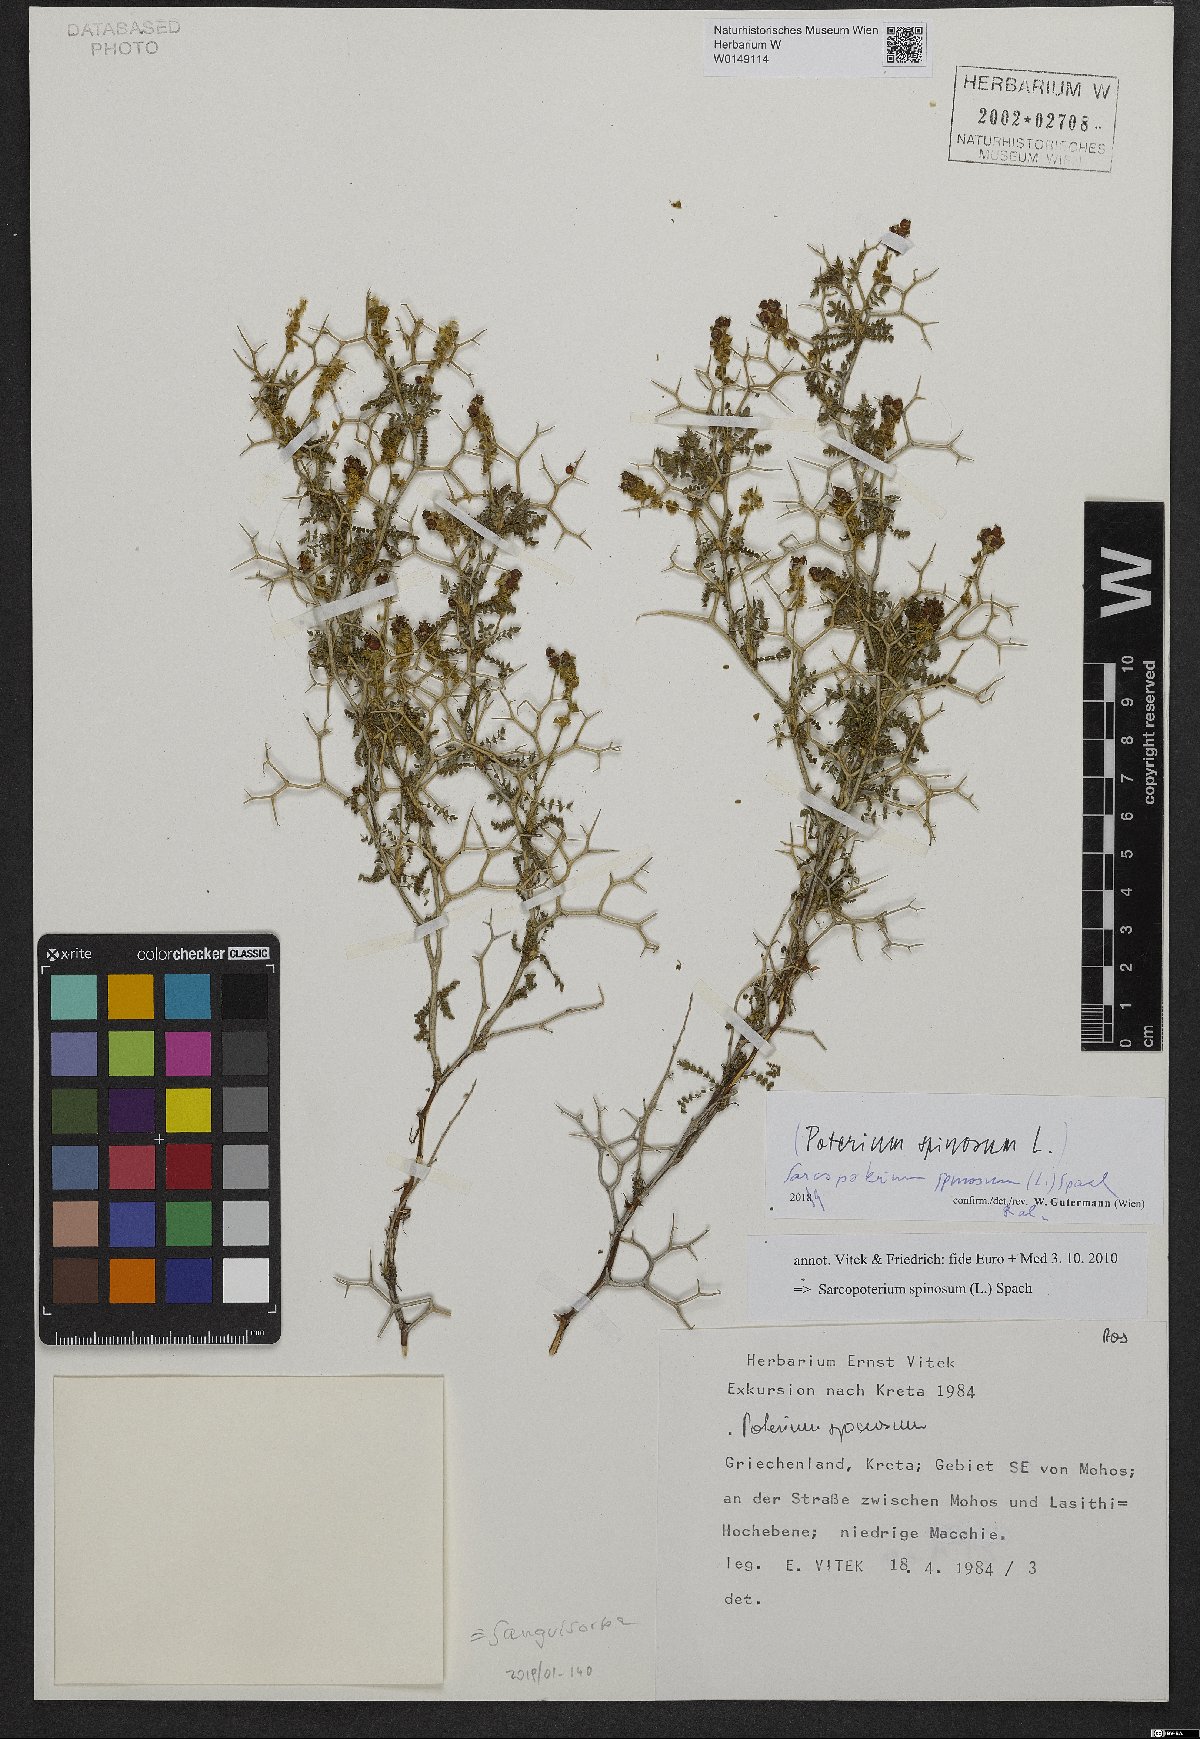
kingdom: Plantae
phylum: Tracheophyta
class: Magnoliopsida
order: Rosales
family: Rosaceae
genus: Sarcopoterium
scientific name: Sarcopoterium spinosum
